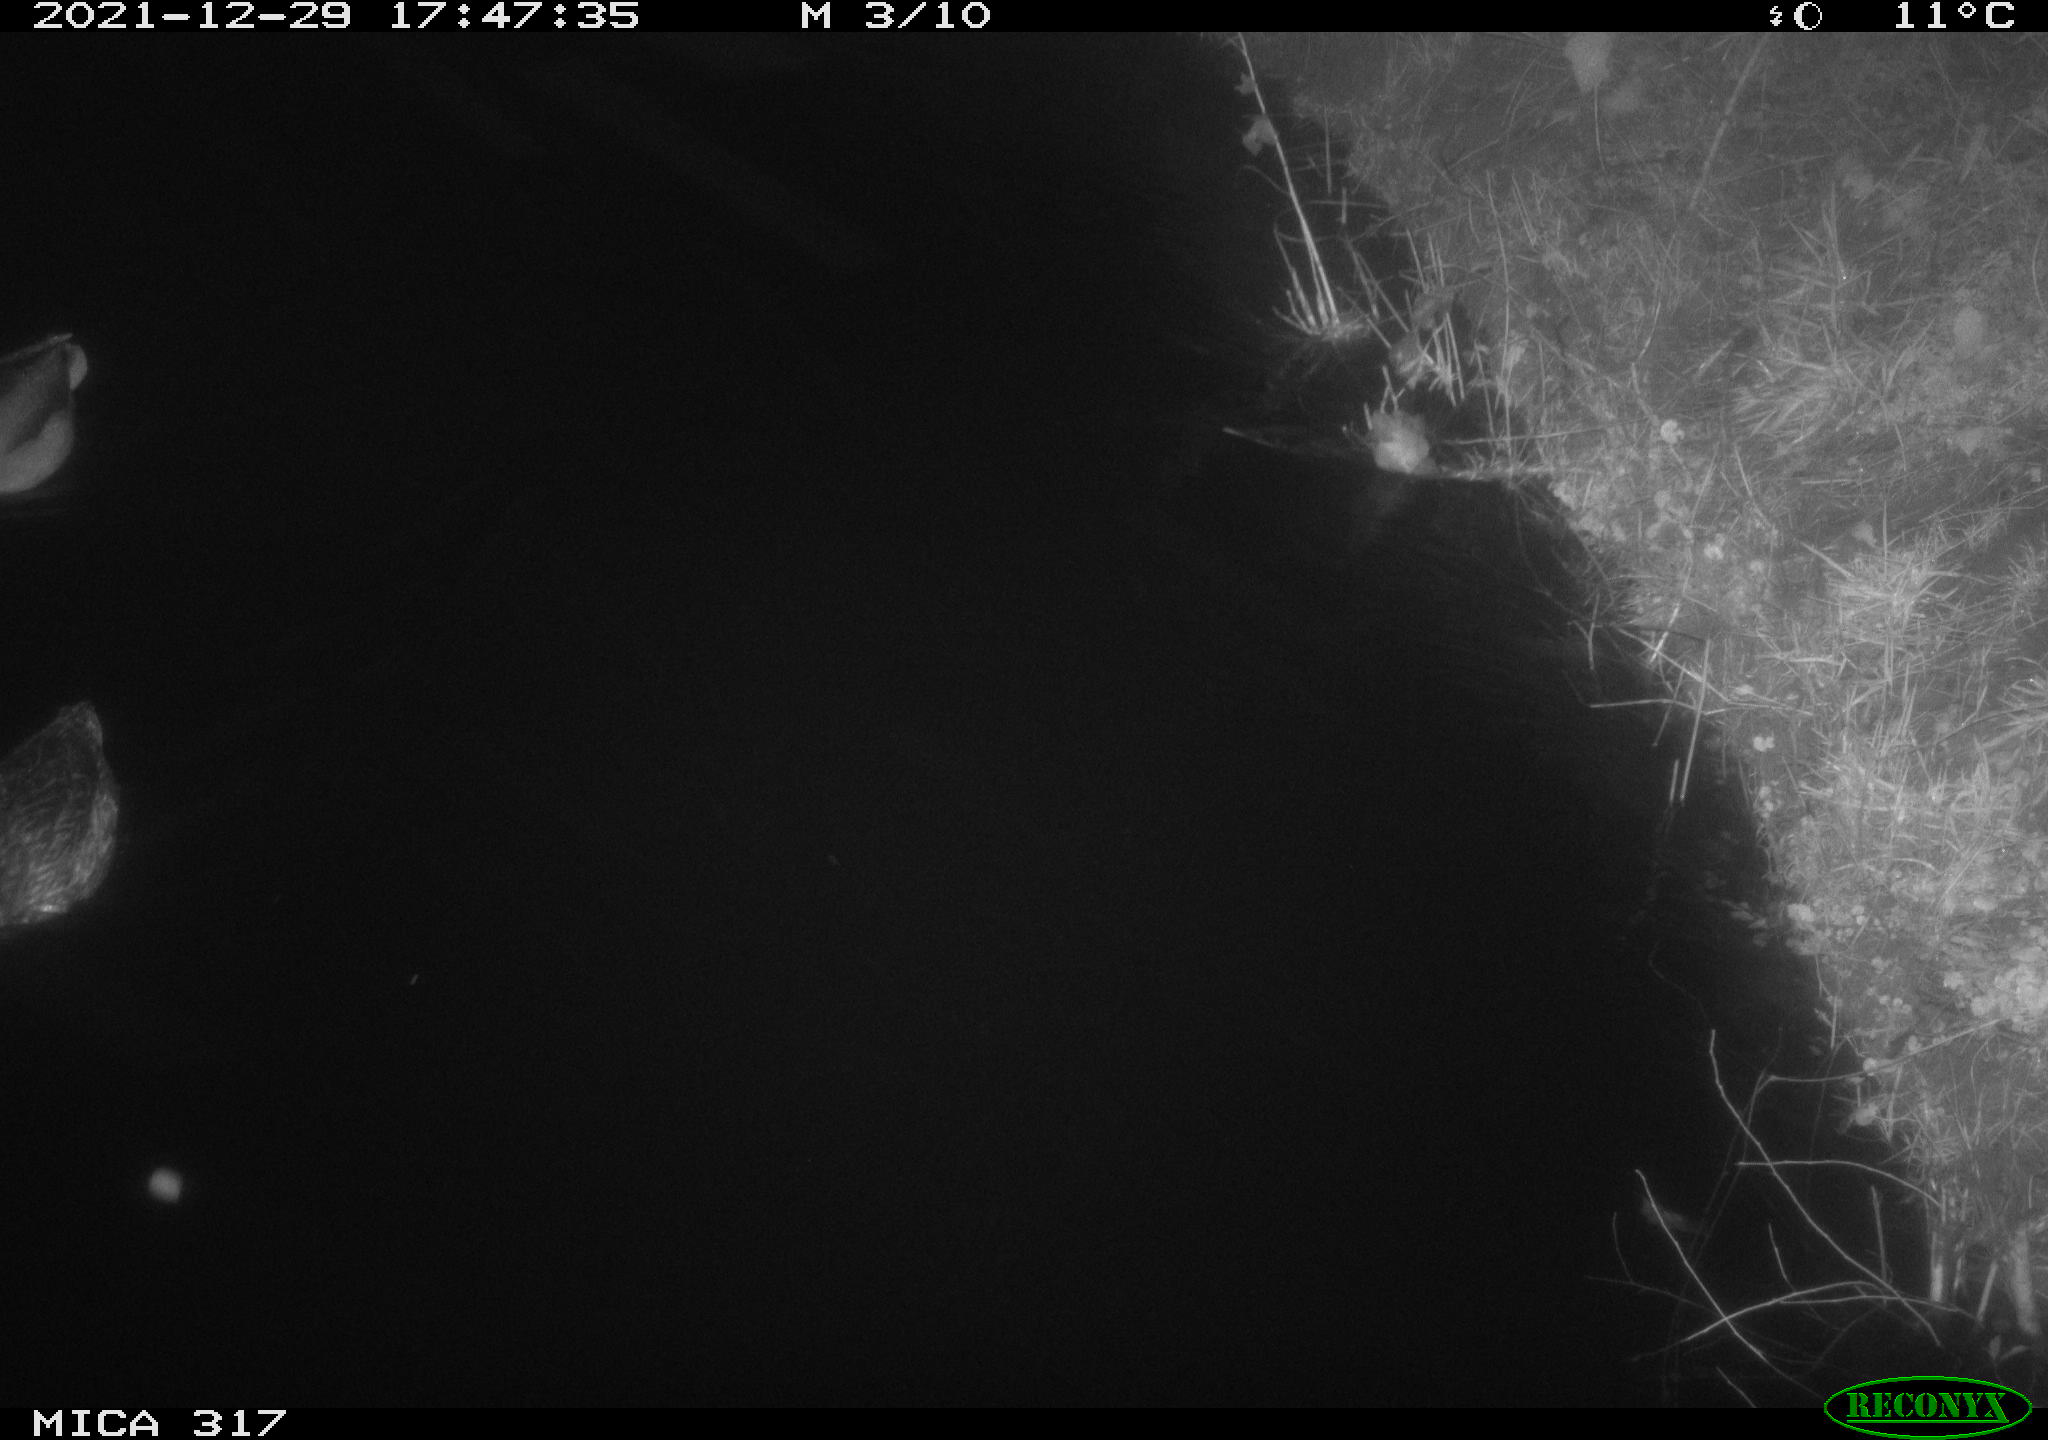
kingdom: Animalia
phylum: Chordata
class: Aves
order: Anseriformes
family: Anatidae
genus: Anas
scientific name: Anas platyrhynchos
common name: Mallard
